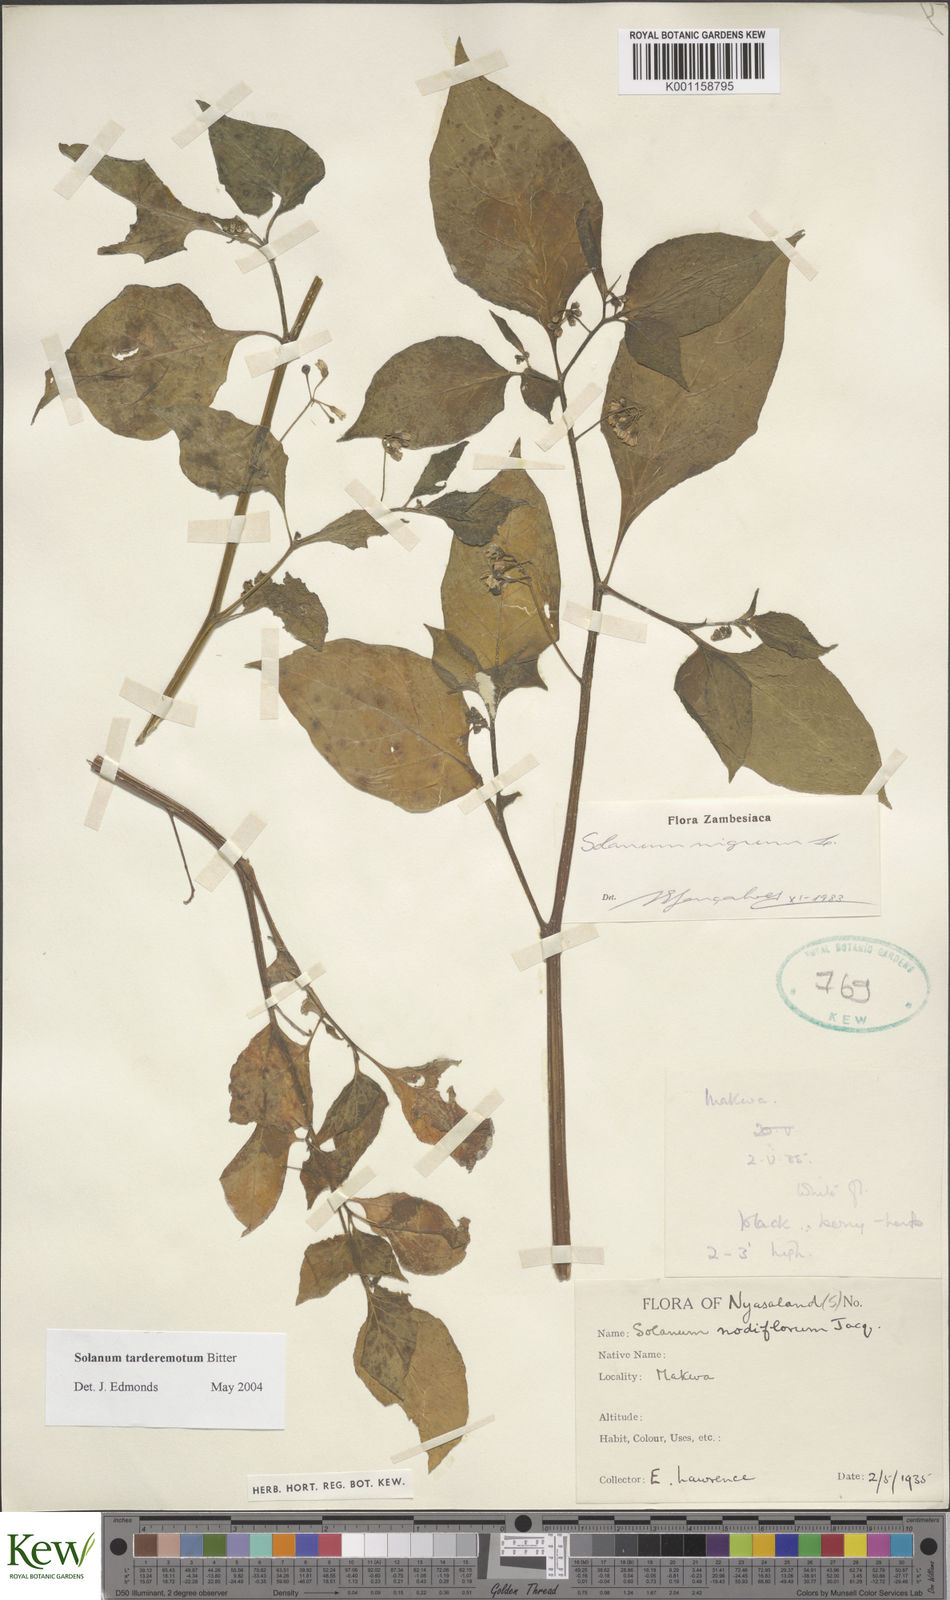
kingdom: Plantae
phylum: Tracheophyta
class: Magnoliopsida
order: Solanales
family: Solanaceae
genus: Solanum
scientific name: Solanum tarderemotum
